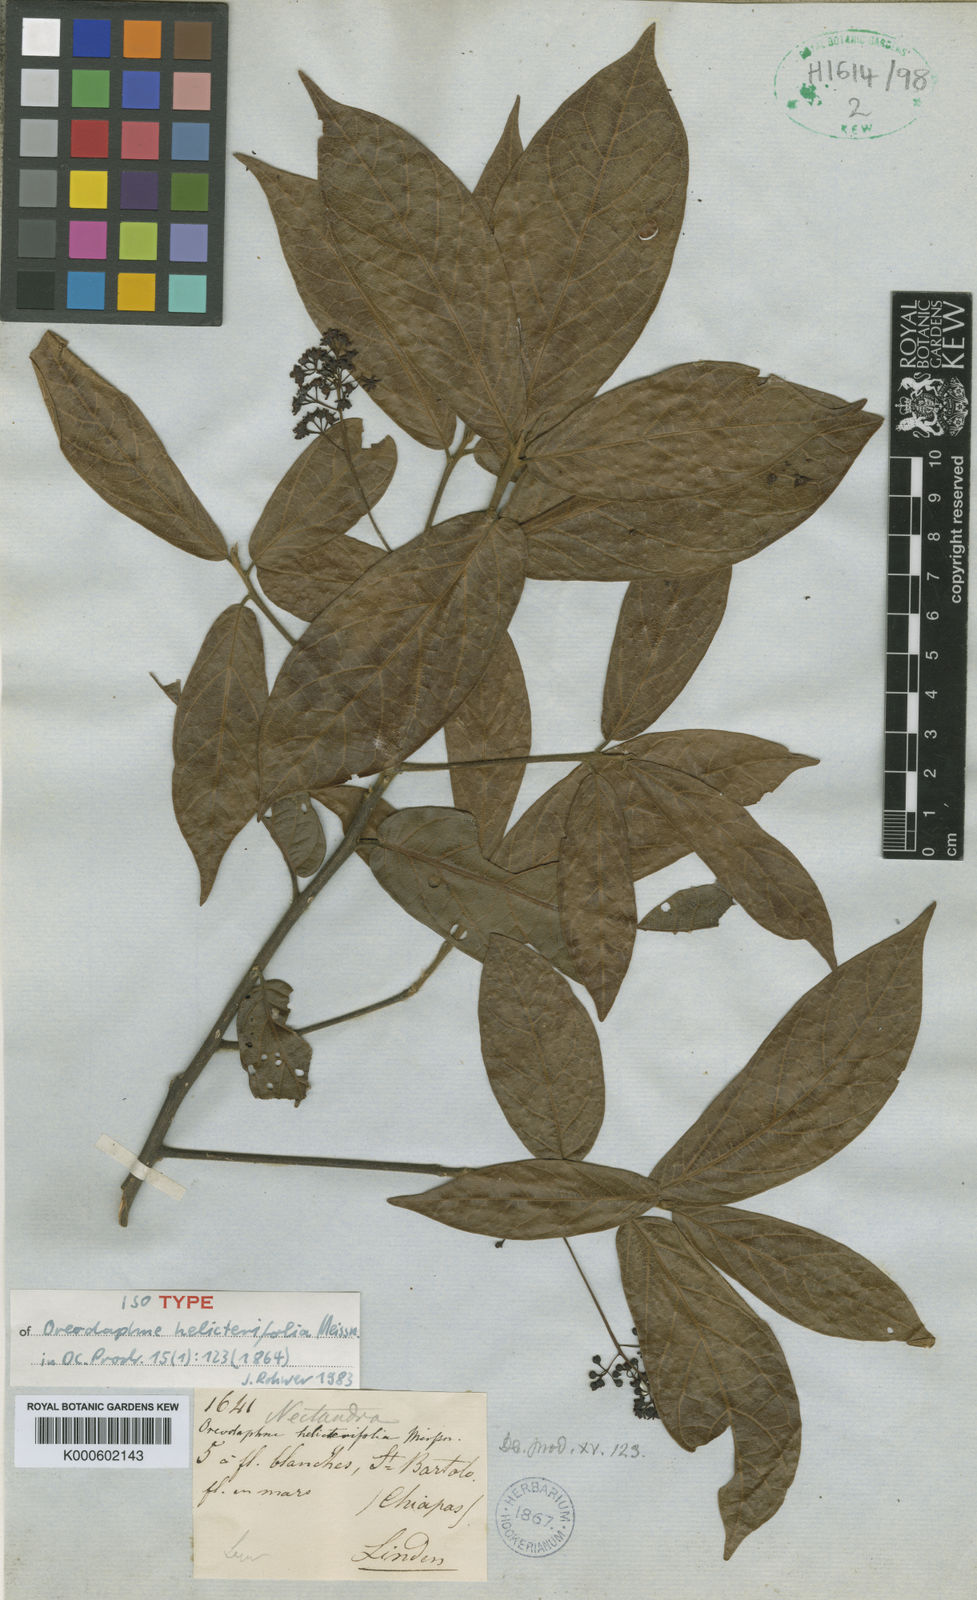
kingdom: Plantae
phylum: Tracheophyta
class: Magnoliopsida
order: Laurales
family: Lauraceae
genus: Ocotea
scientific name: Ocotea macrophylla
